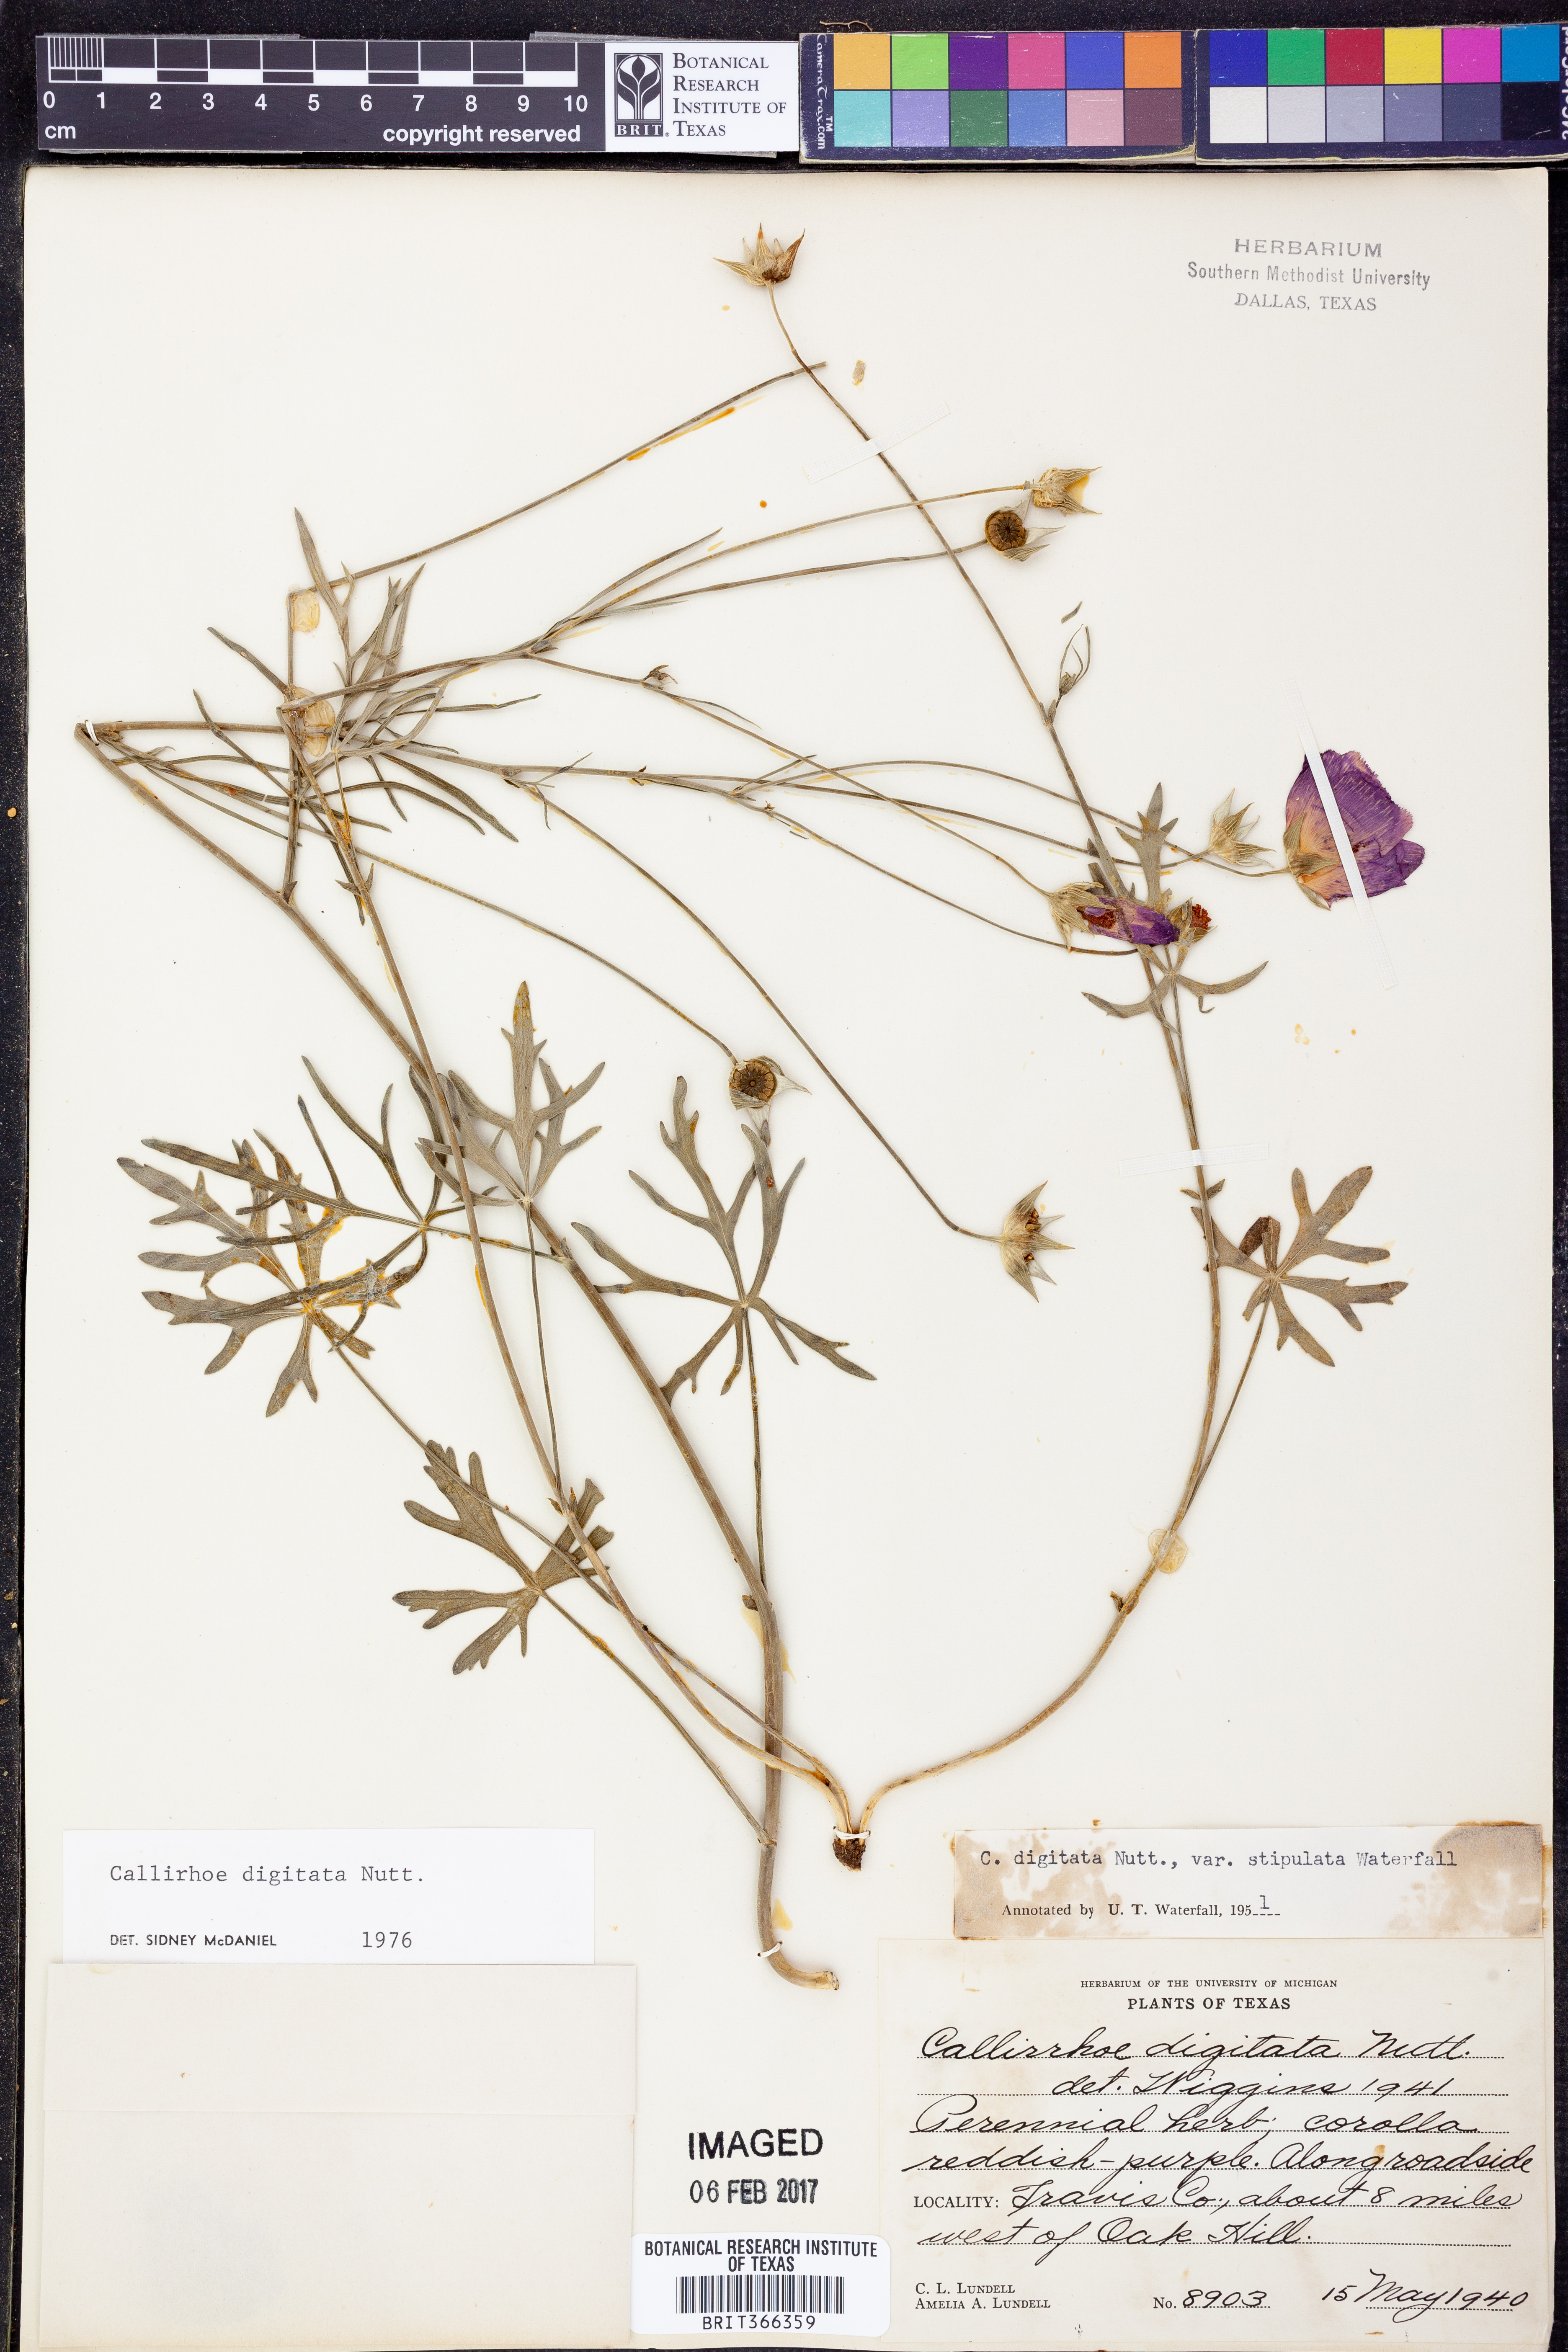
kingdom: Plantae
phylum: Tracheophyta
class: Magnoliopsida
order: Malvales
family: Malvaceae
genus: Callirhoe
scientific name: Callirhoe digitata
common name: Finger poppy-mallow
